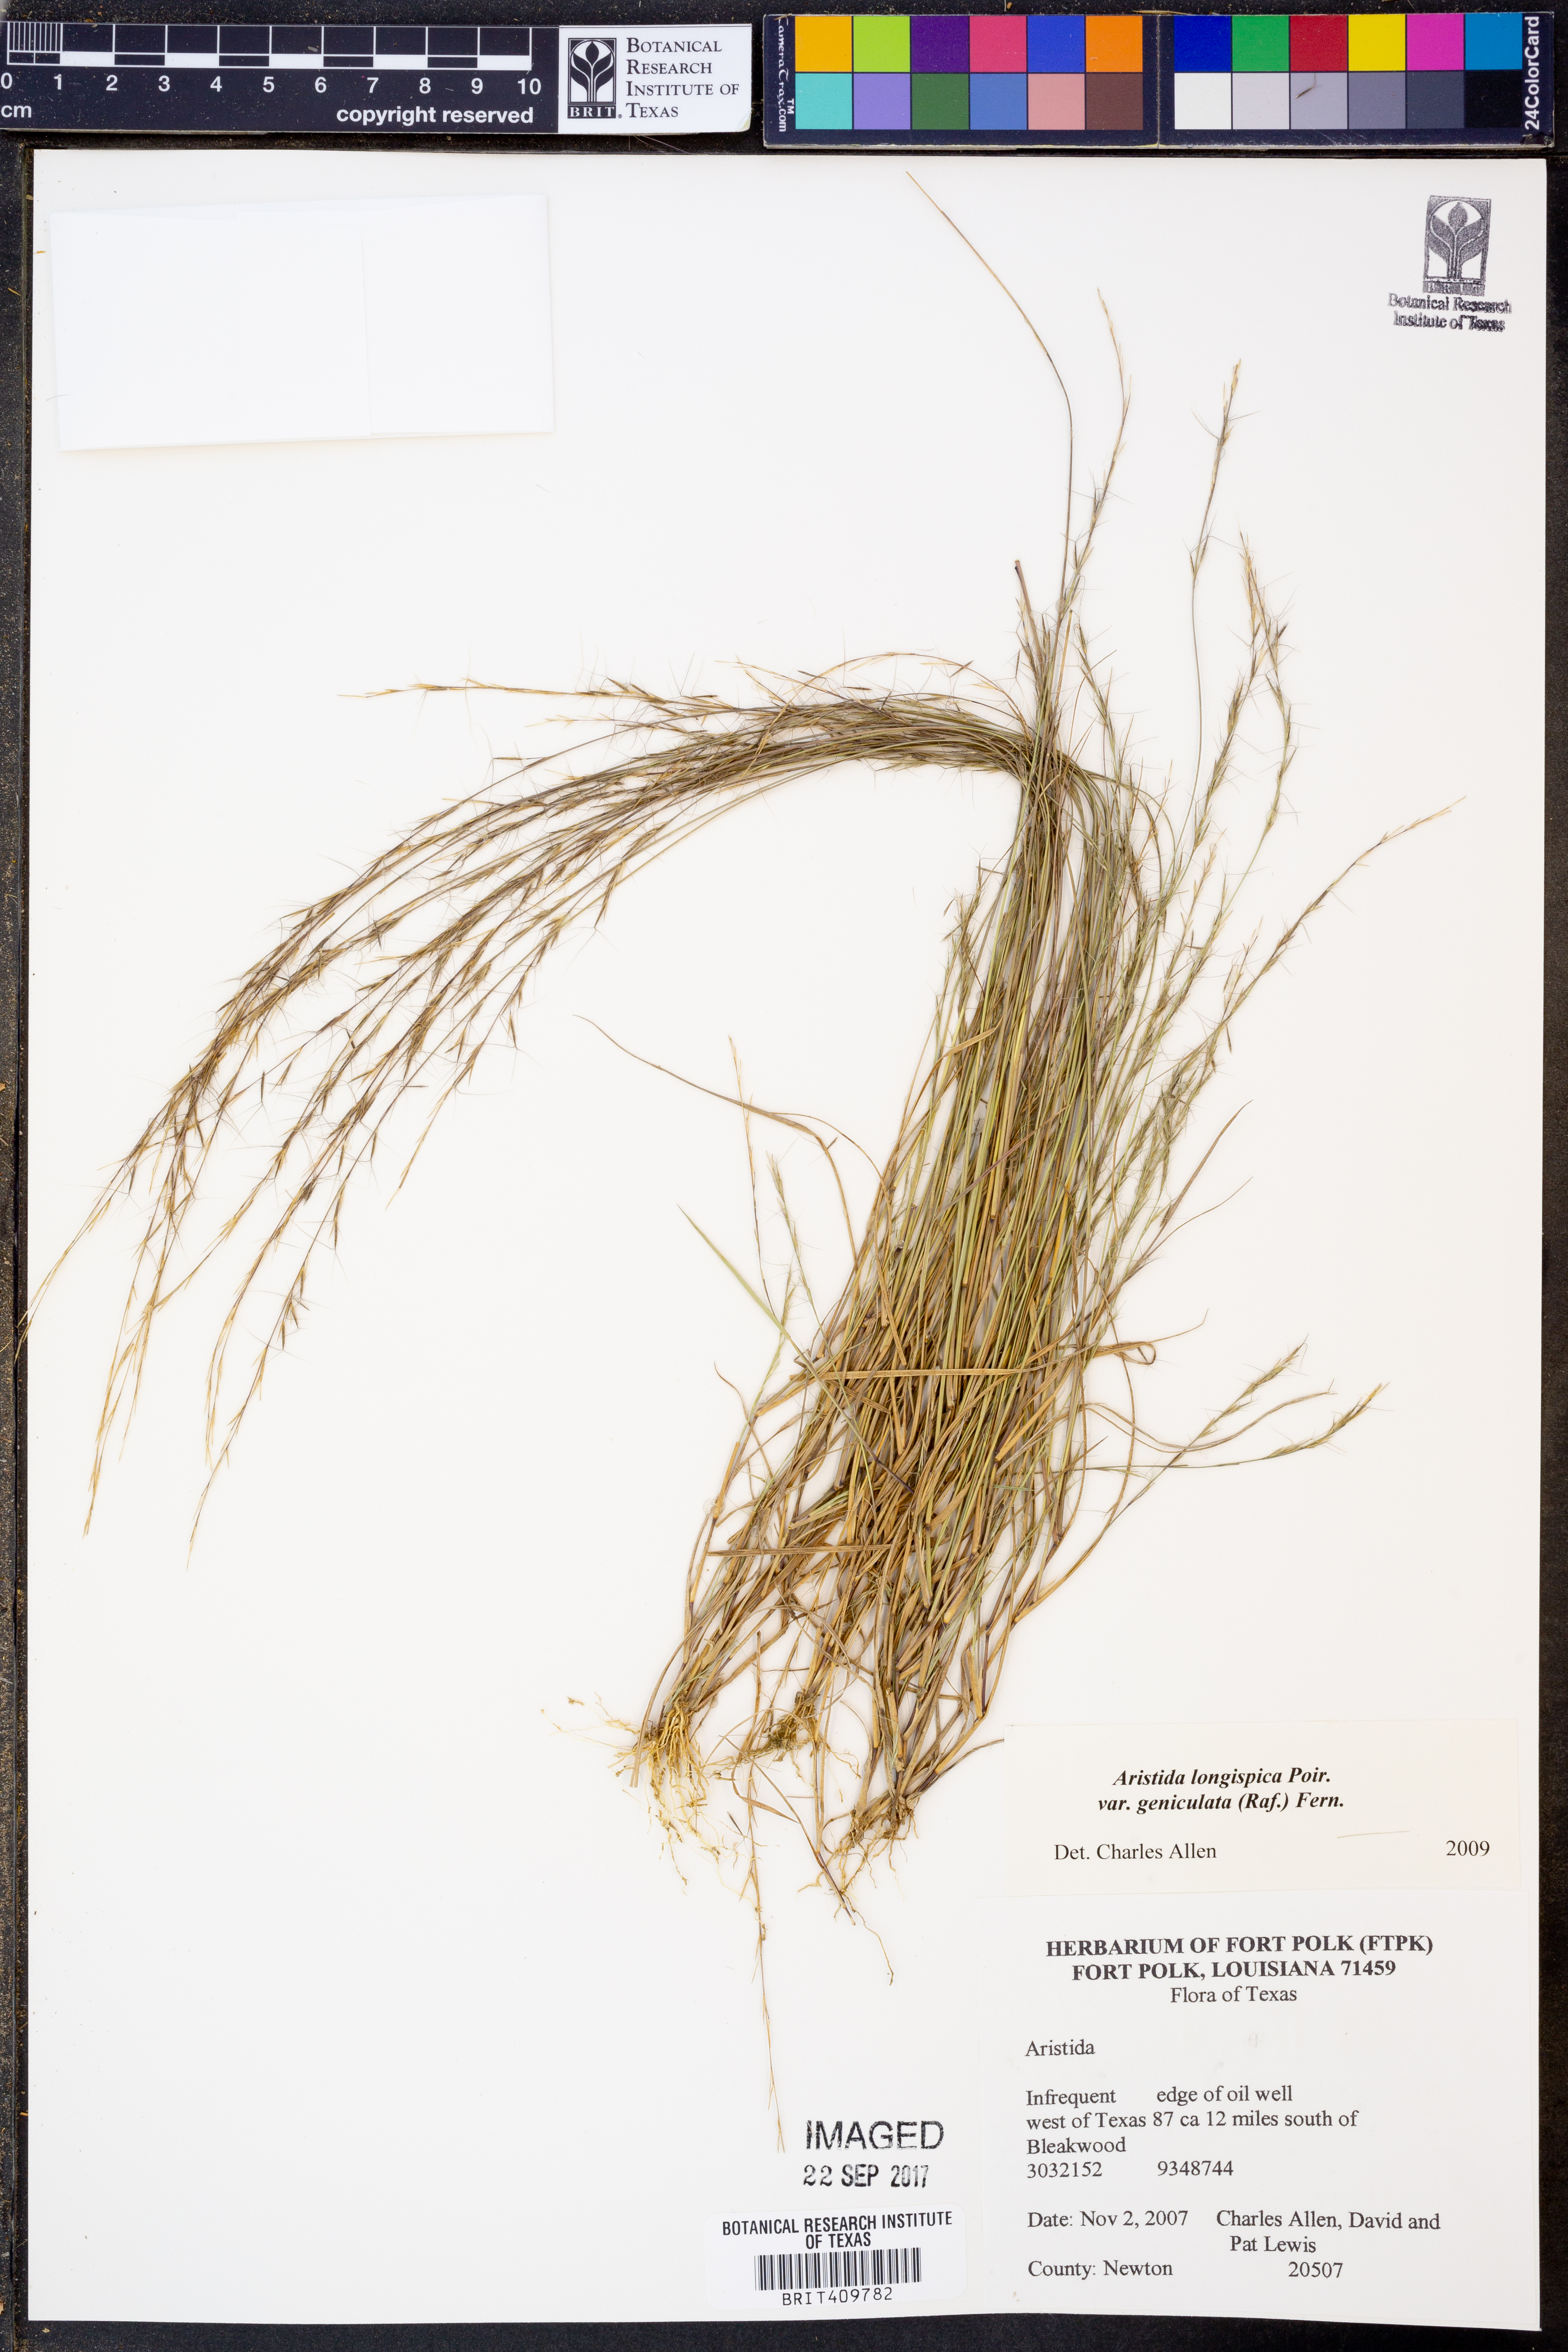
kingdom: Plantae
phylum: Tracheophyta
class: Liliopsida
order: Poales
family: Poaceae
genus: Aristida
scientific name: Aristida longespica
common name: Long-spiked triple-awned grass
